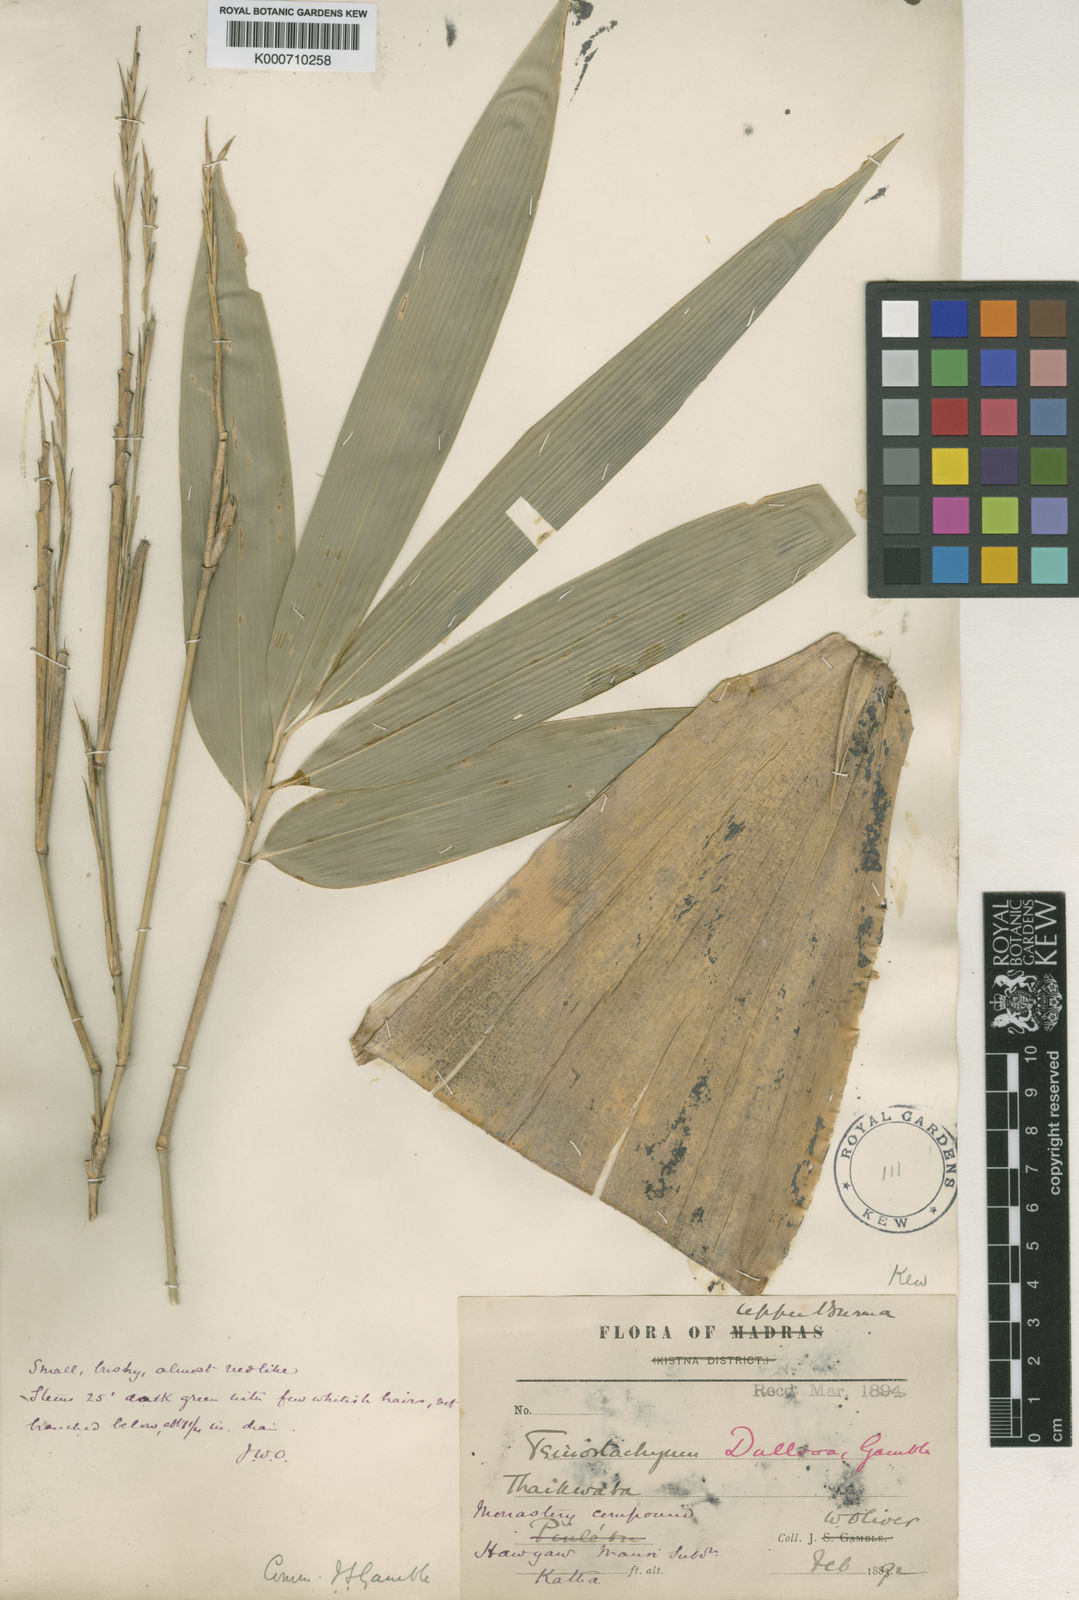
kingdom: Plantae
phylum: Tracheophyta
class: Liliopsida
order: Poales
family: Poaceae
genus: Schizostachyum
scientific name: Schizostachyum dullooa
